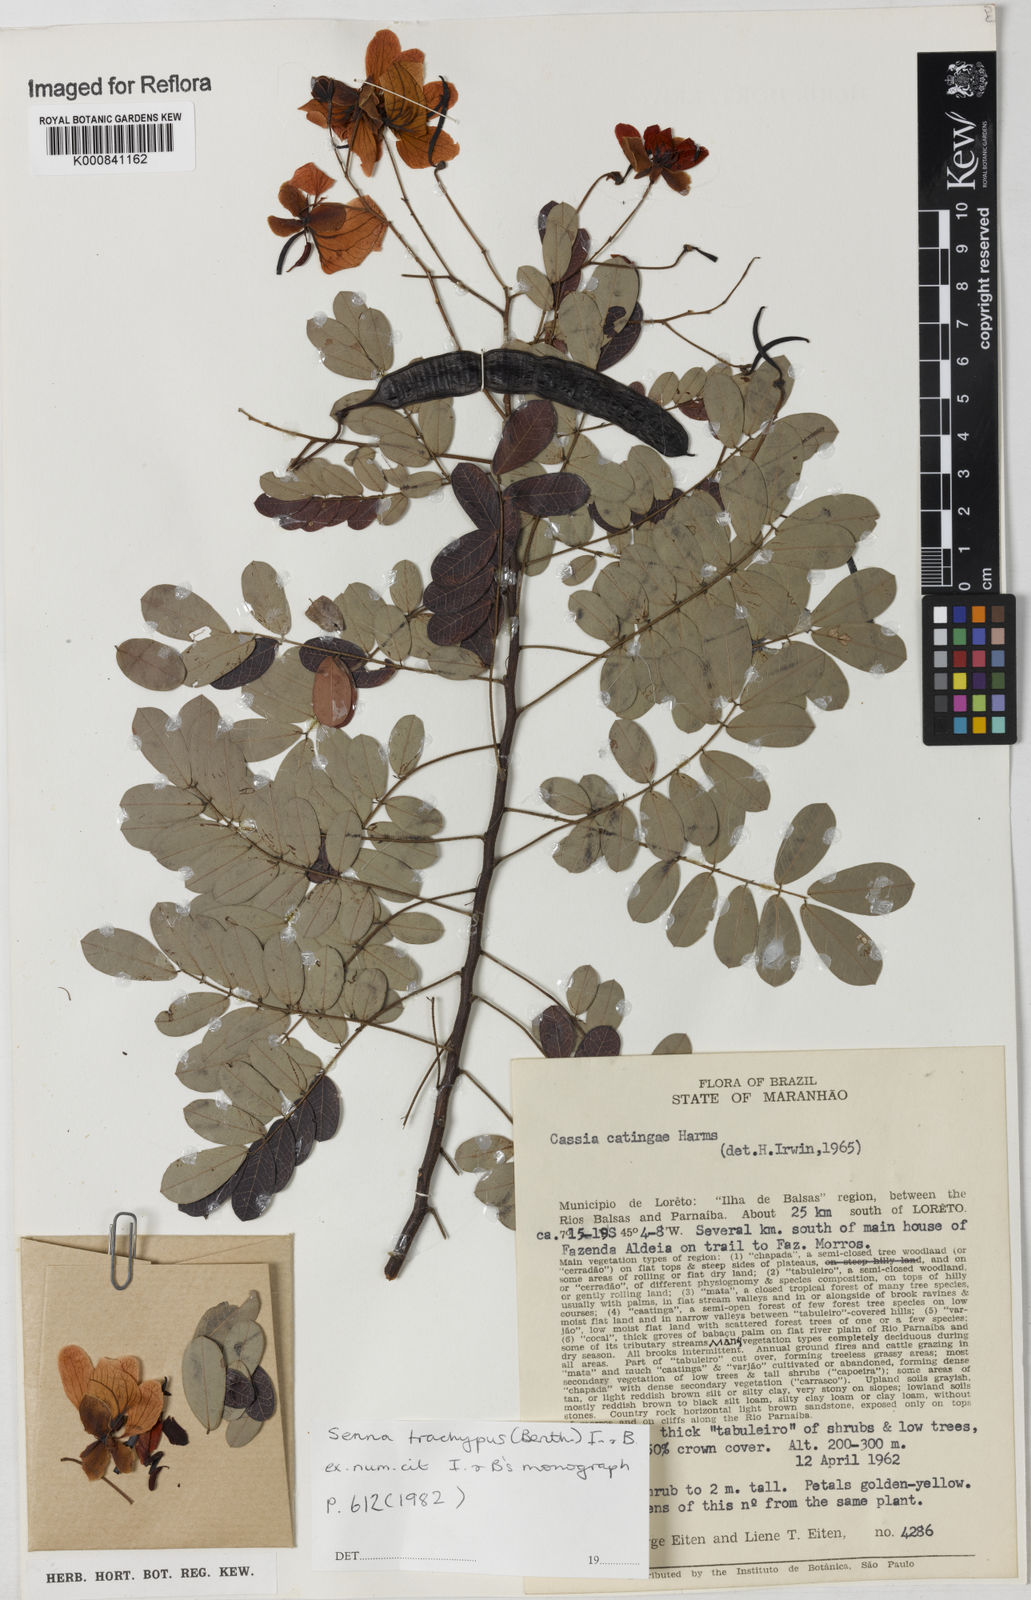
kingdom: Plantae
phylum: Tracheophyta
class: Magnoliopsida
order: Fabales
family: Fabaceae
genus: Senna
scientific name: Senna trachypus
